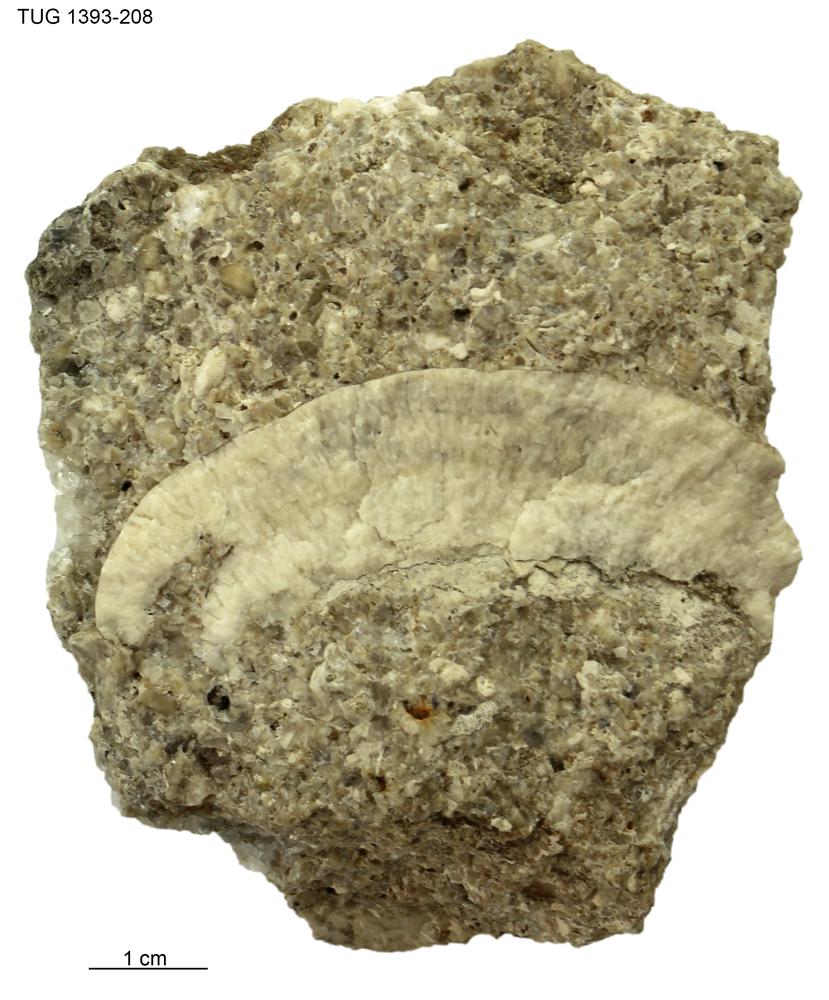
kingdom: Animalia
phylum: Bryozoa
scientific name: Bryozoa
